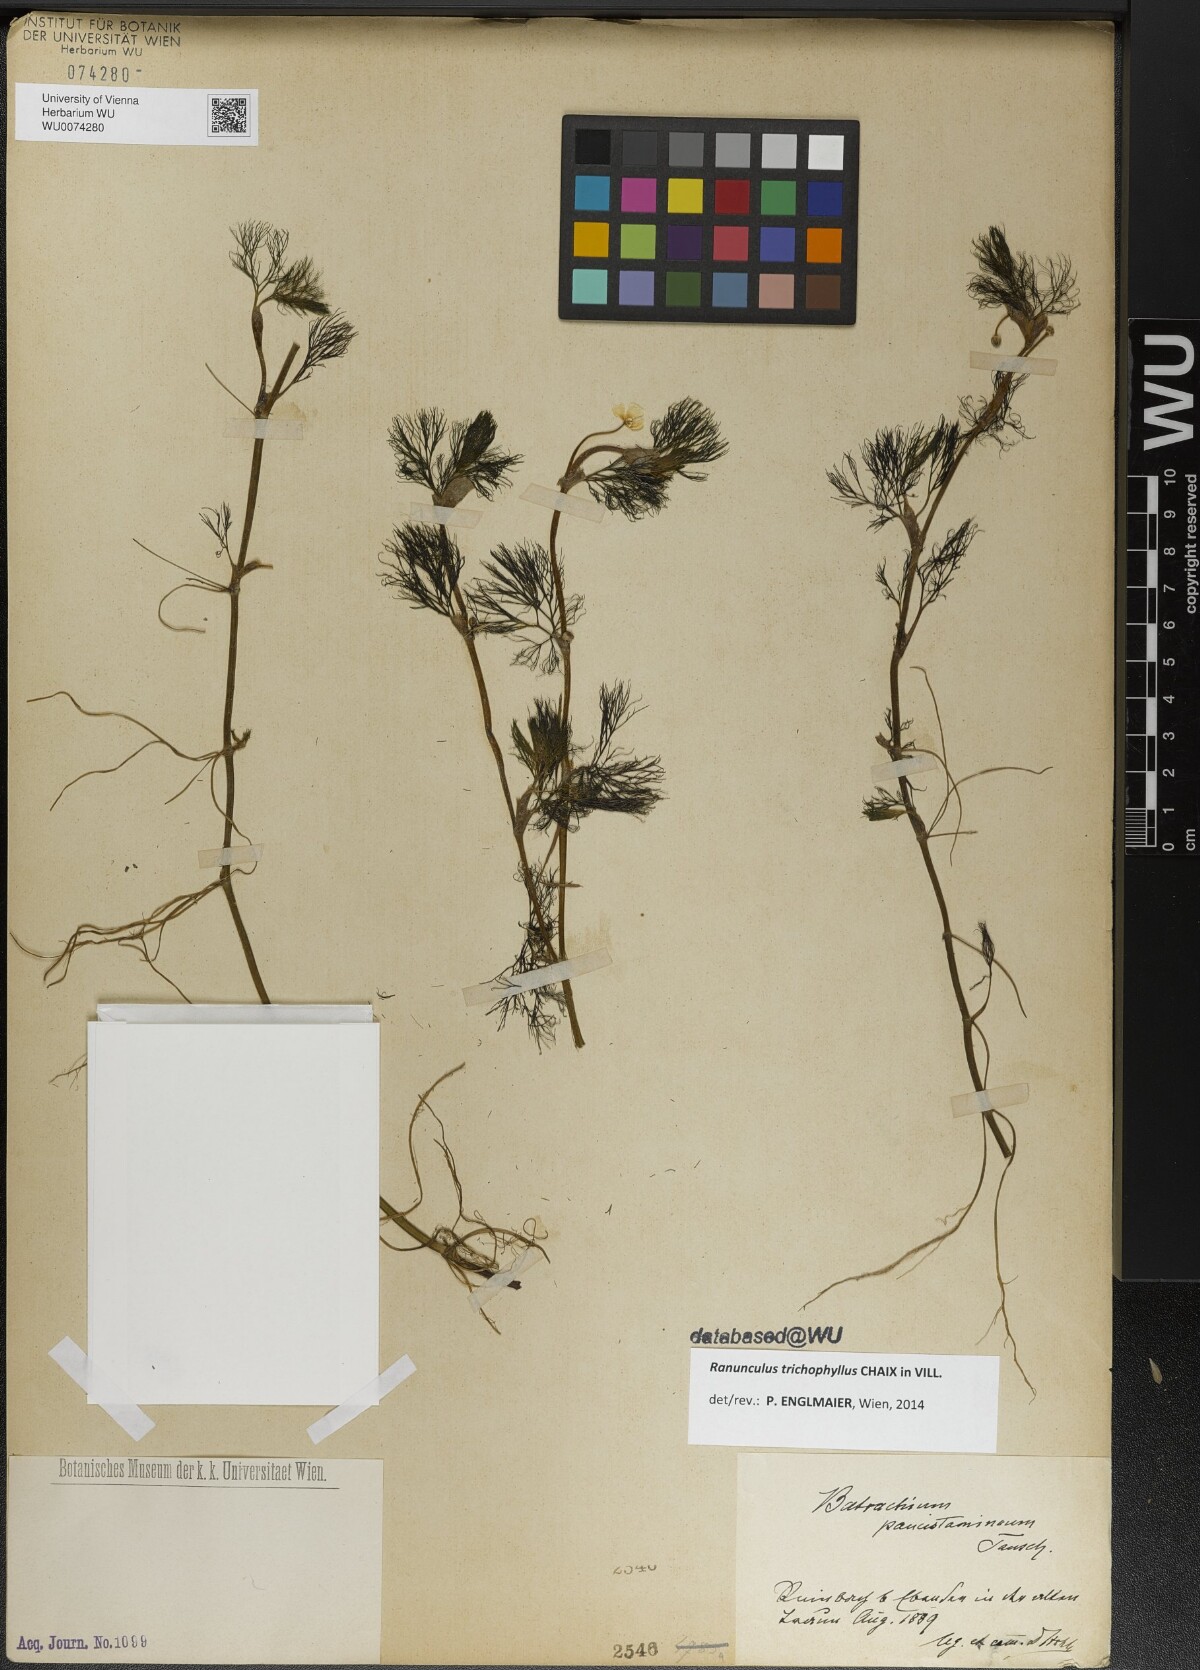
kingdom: Plantae
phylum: Tracheophyta
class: Magnoliopsida
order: Ranunculales
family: Ranunculaceae
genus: Ranunculus
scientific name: Ranunculus trichophyllus
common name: Thread-leaved water-crowfoot
